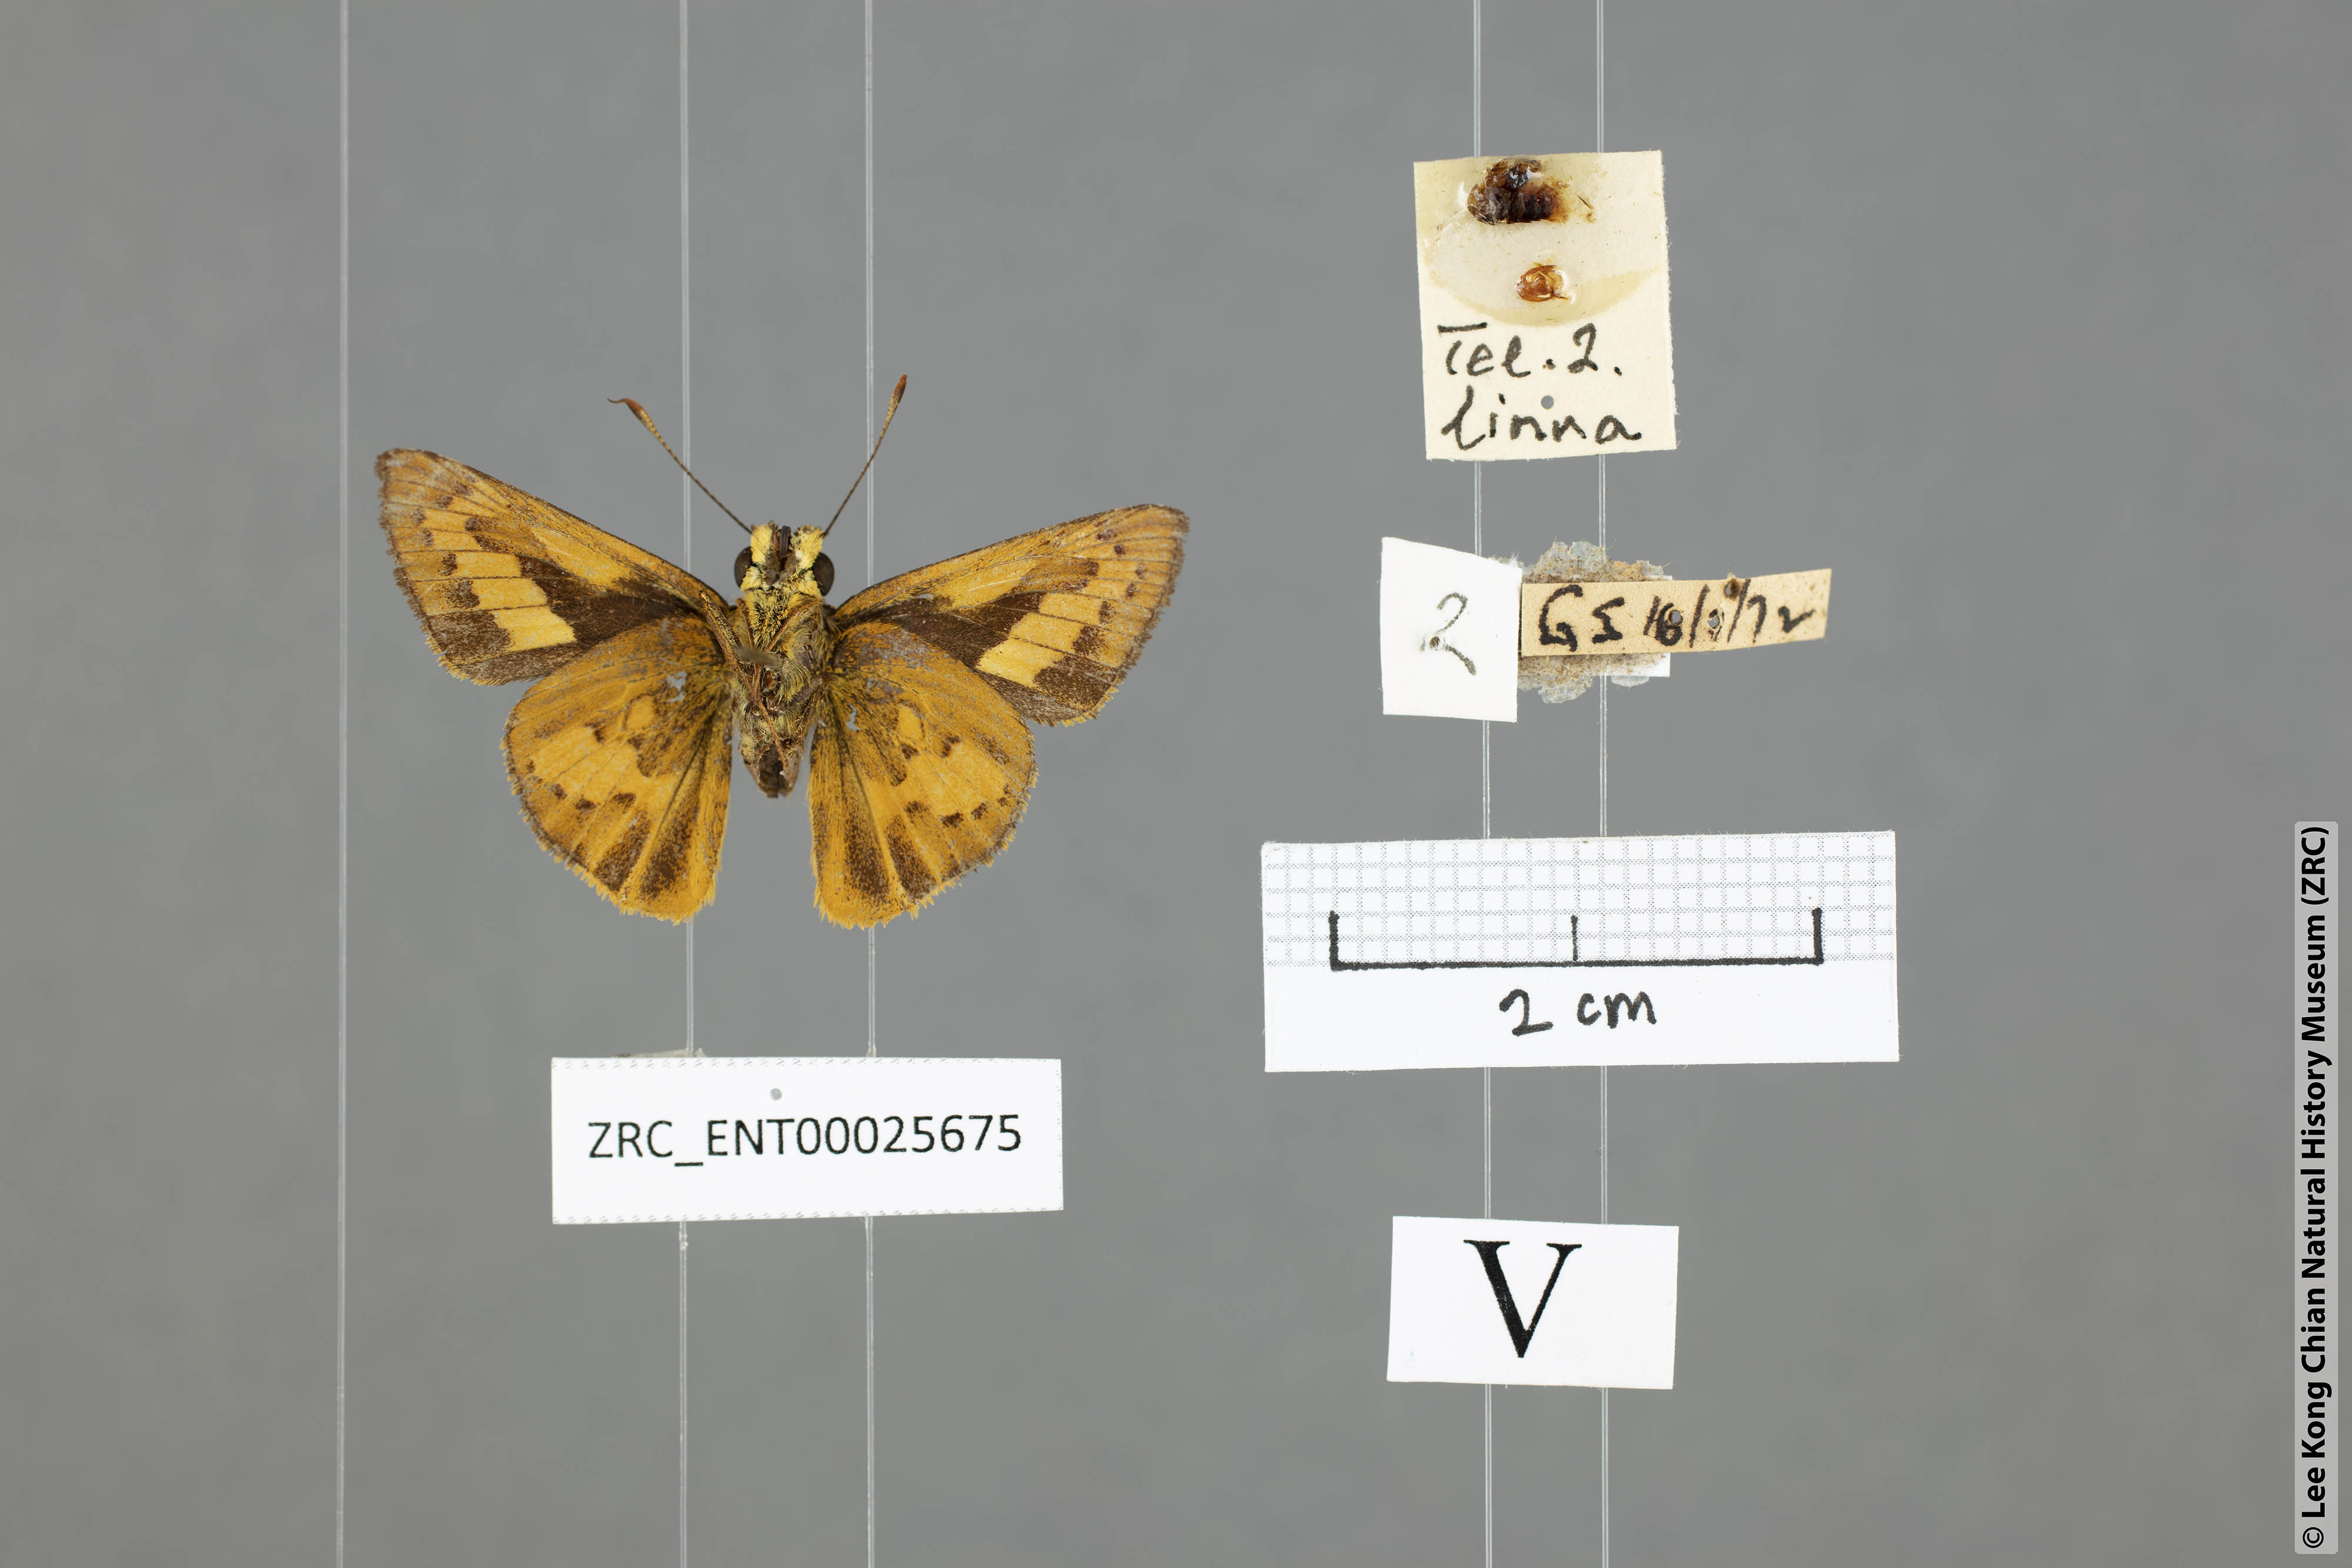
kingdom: Animalia
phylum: Arthropoda
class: Insecta
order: Lepidoptera
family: Hesperiidae
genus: Telicota
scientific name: Telicota hilda
